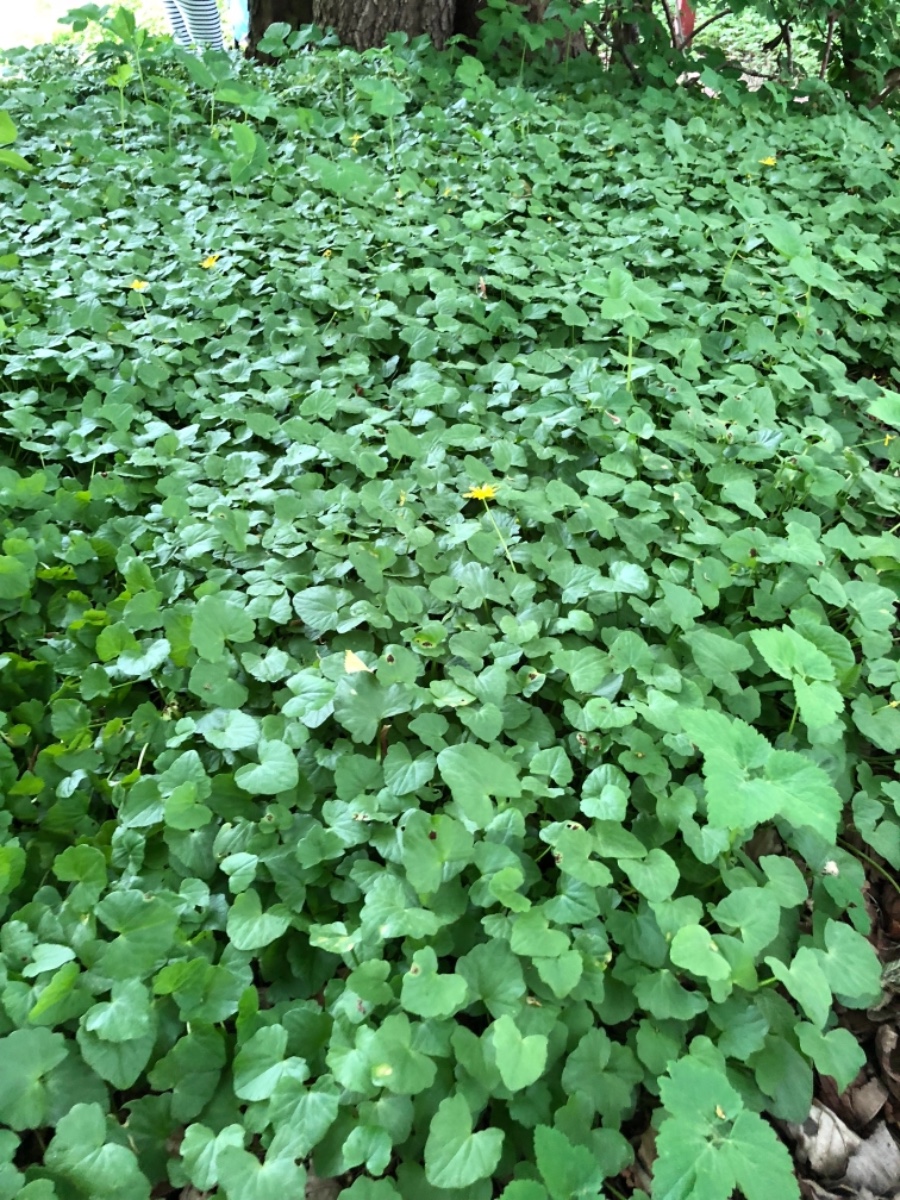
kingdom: Fungi
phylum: Basidiomycota
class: Pucciniomycetes
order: Pucciniales
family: Pucciniaceae
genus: Uromyces
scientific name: Uromyces ficariae
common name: vorterod-encellerust
